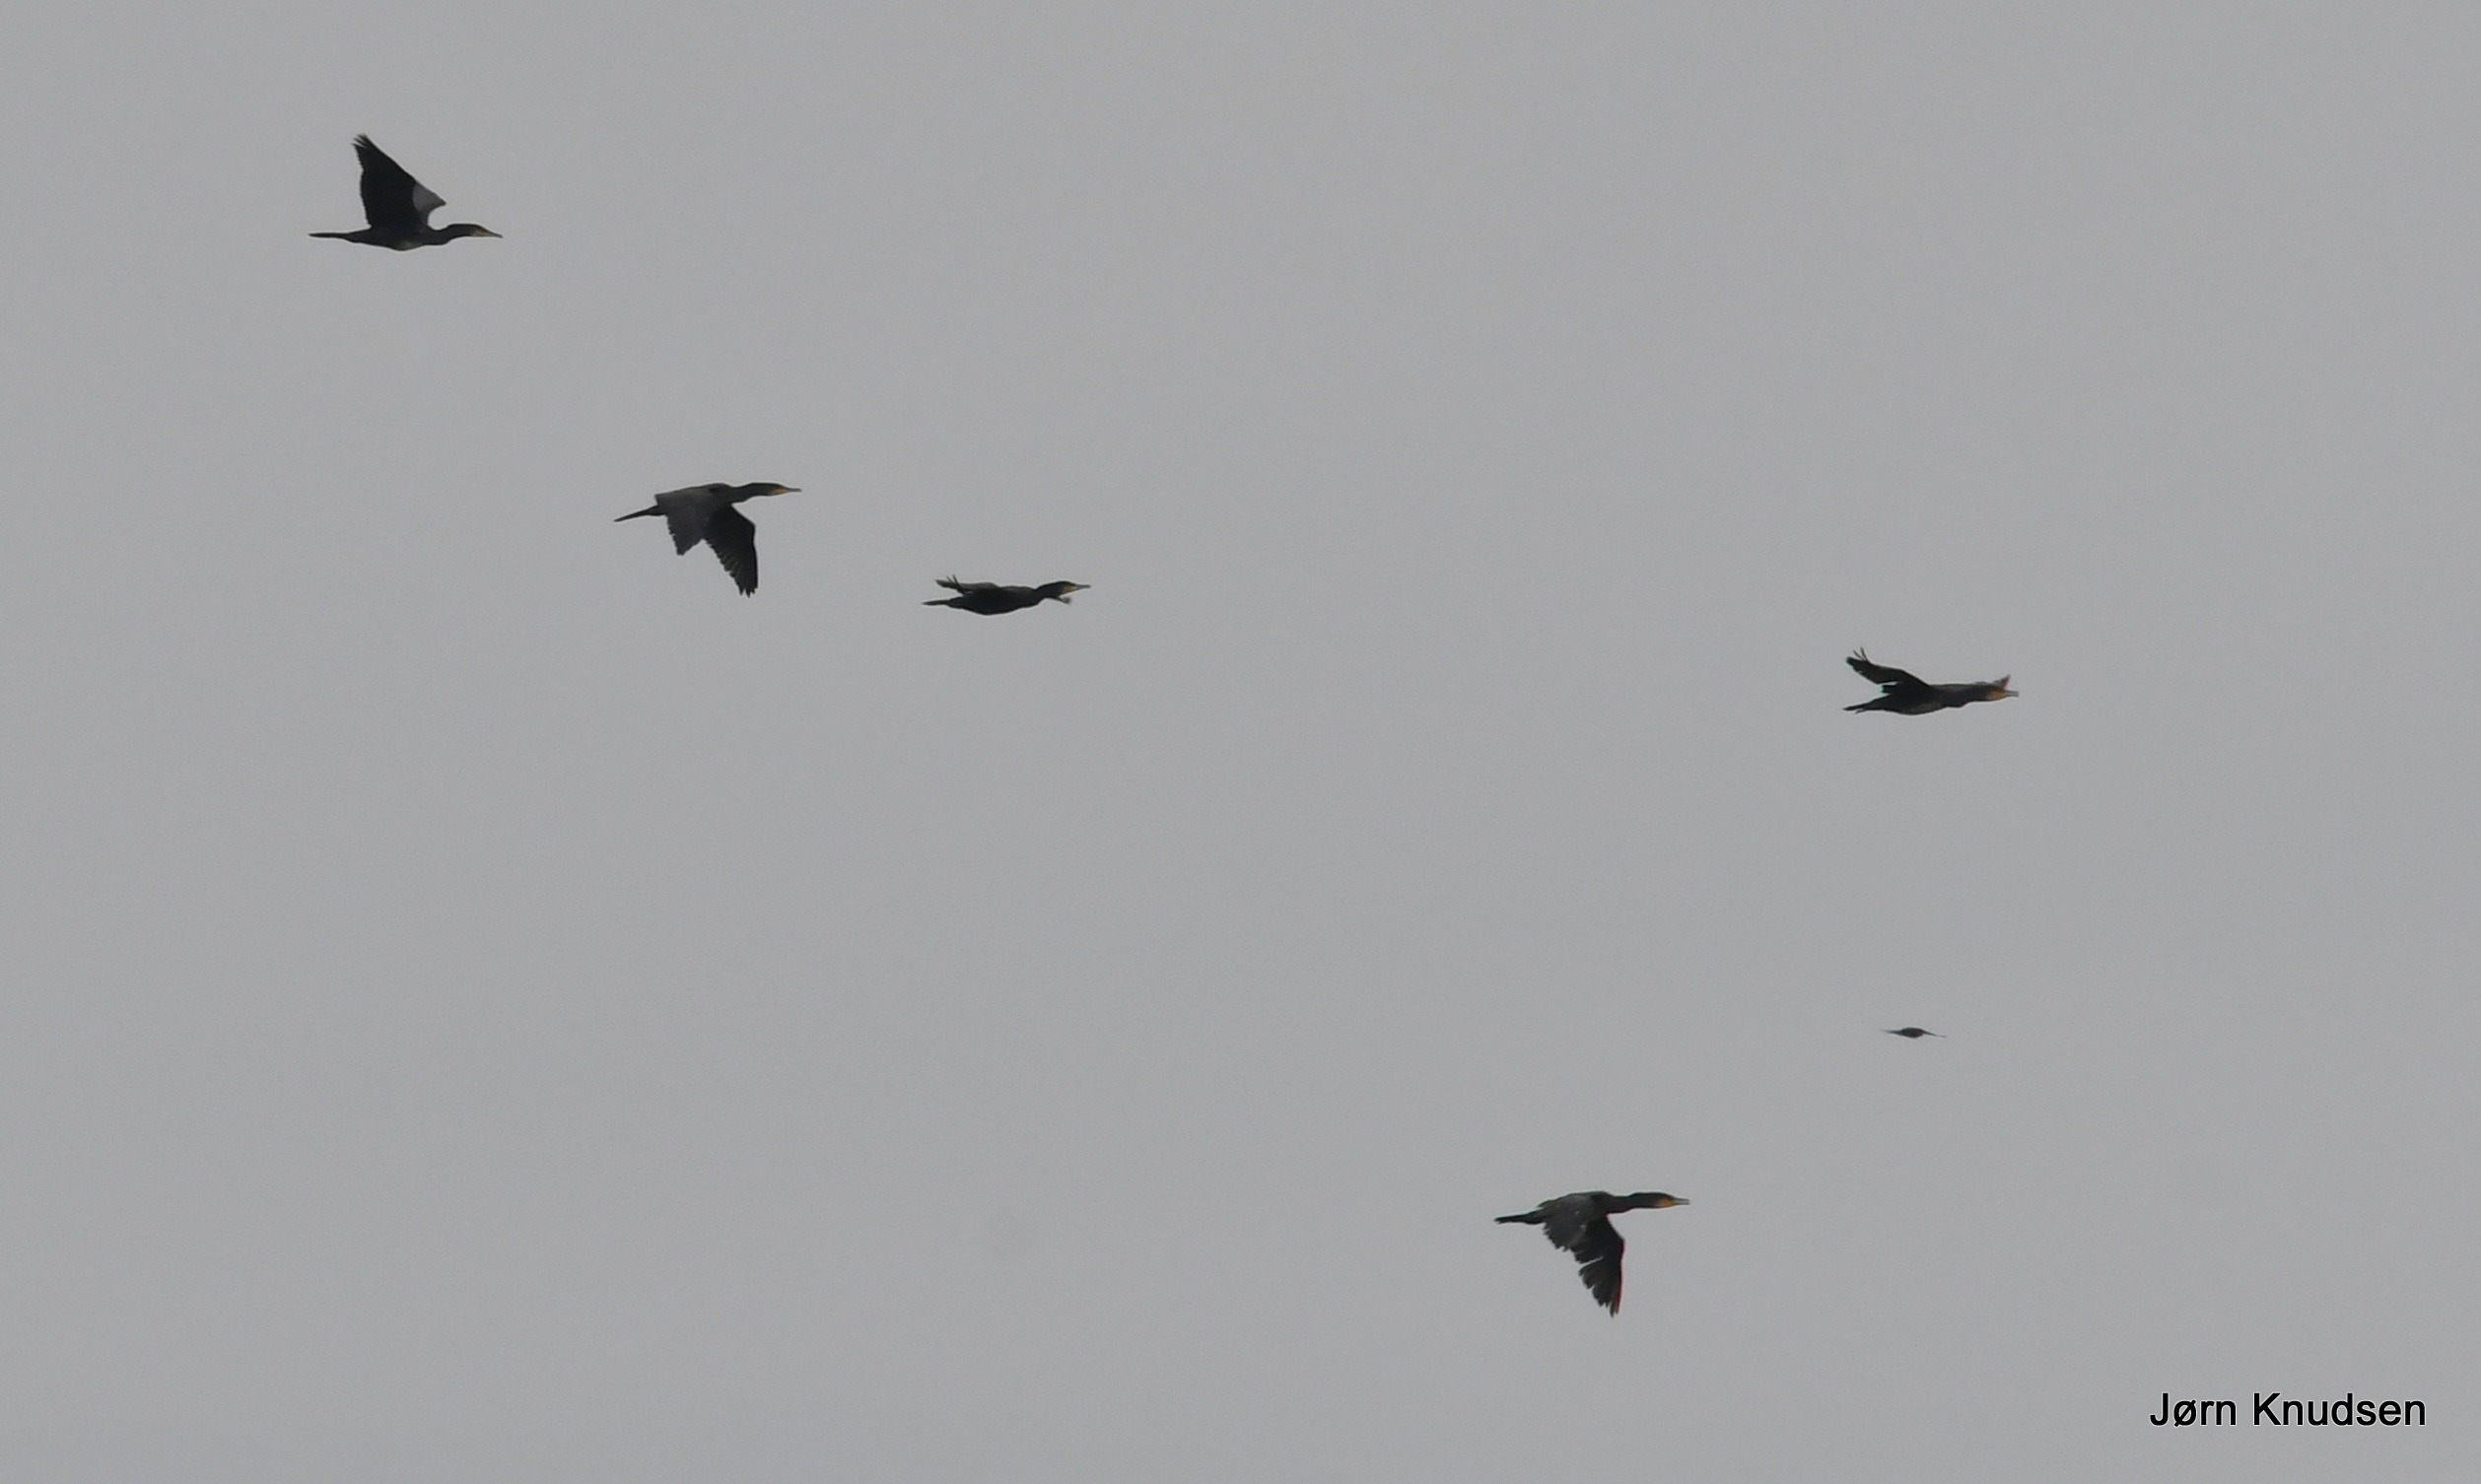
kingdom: Animalia
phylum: Chordata
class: Aves
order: Suliformes
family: Phalacrocoracidae
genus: Phalacrocorax
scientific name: Phalacrocorax carbo
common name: Skarv
